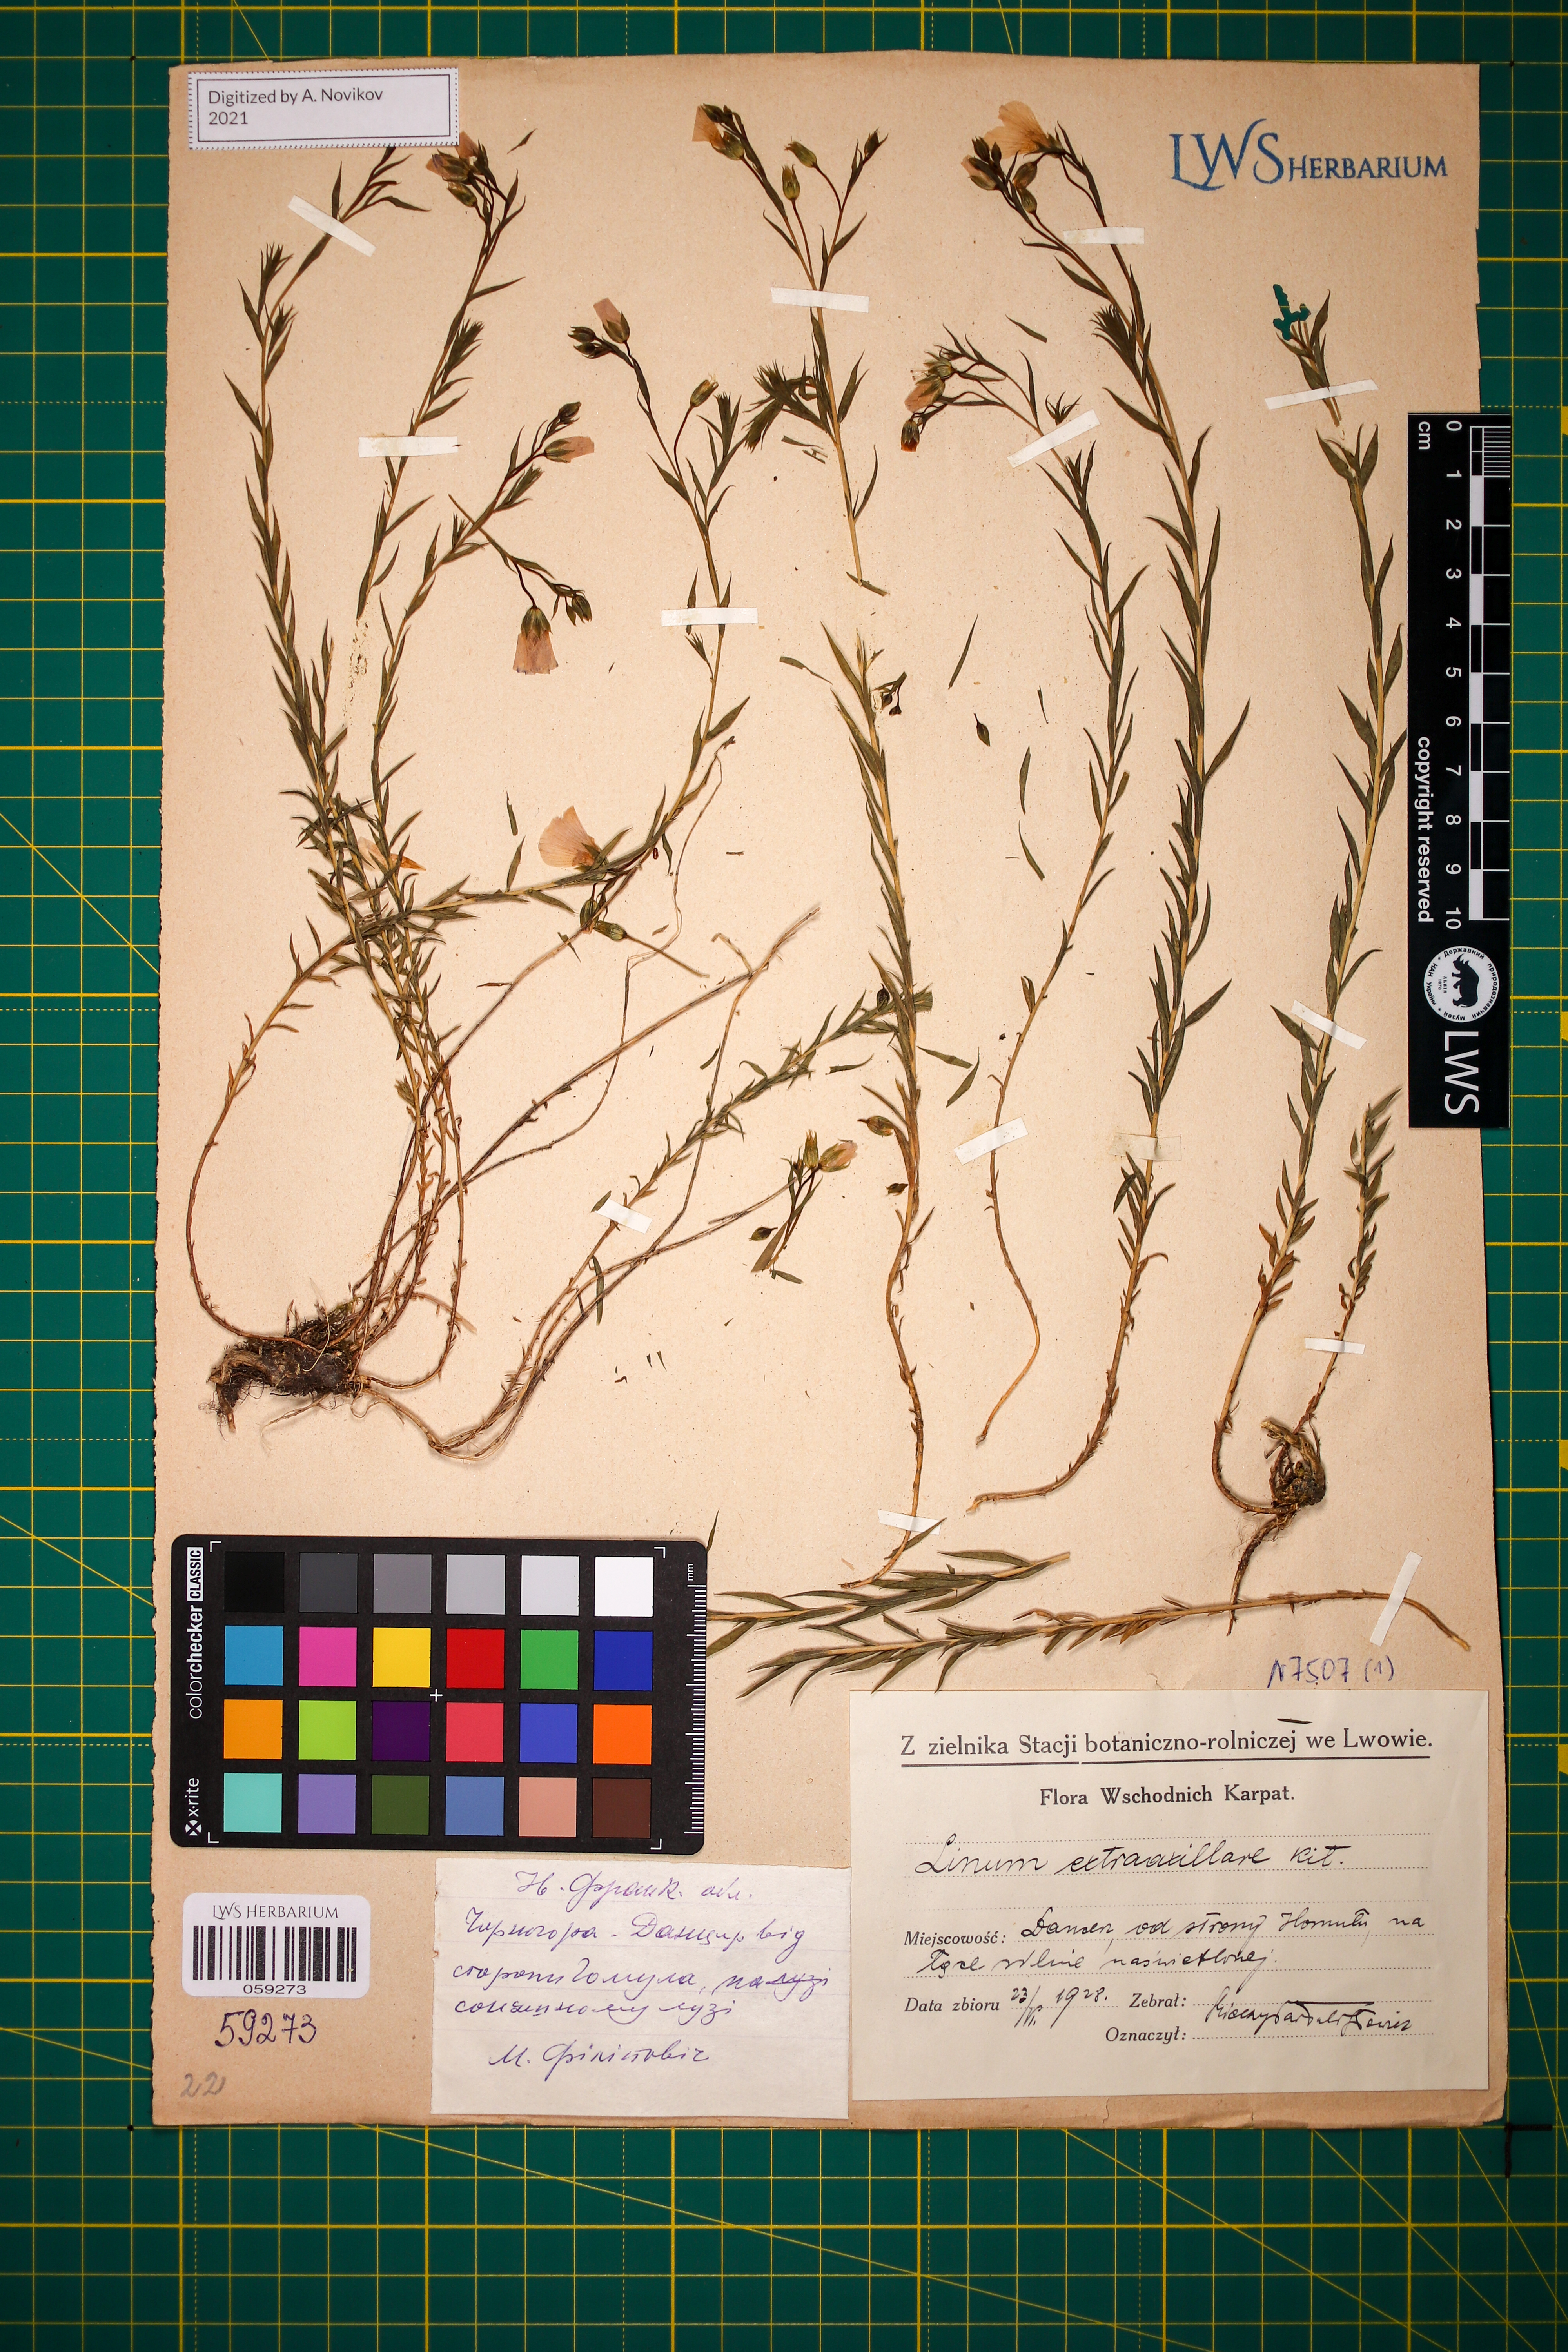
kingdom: Plantae
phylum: Tracheophyta
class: Magnoliopsida
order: Malpighiales
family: Linaceae
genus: Linum
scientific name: Linum perenne
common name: Blue flax
